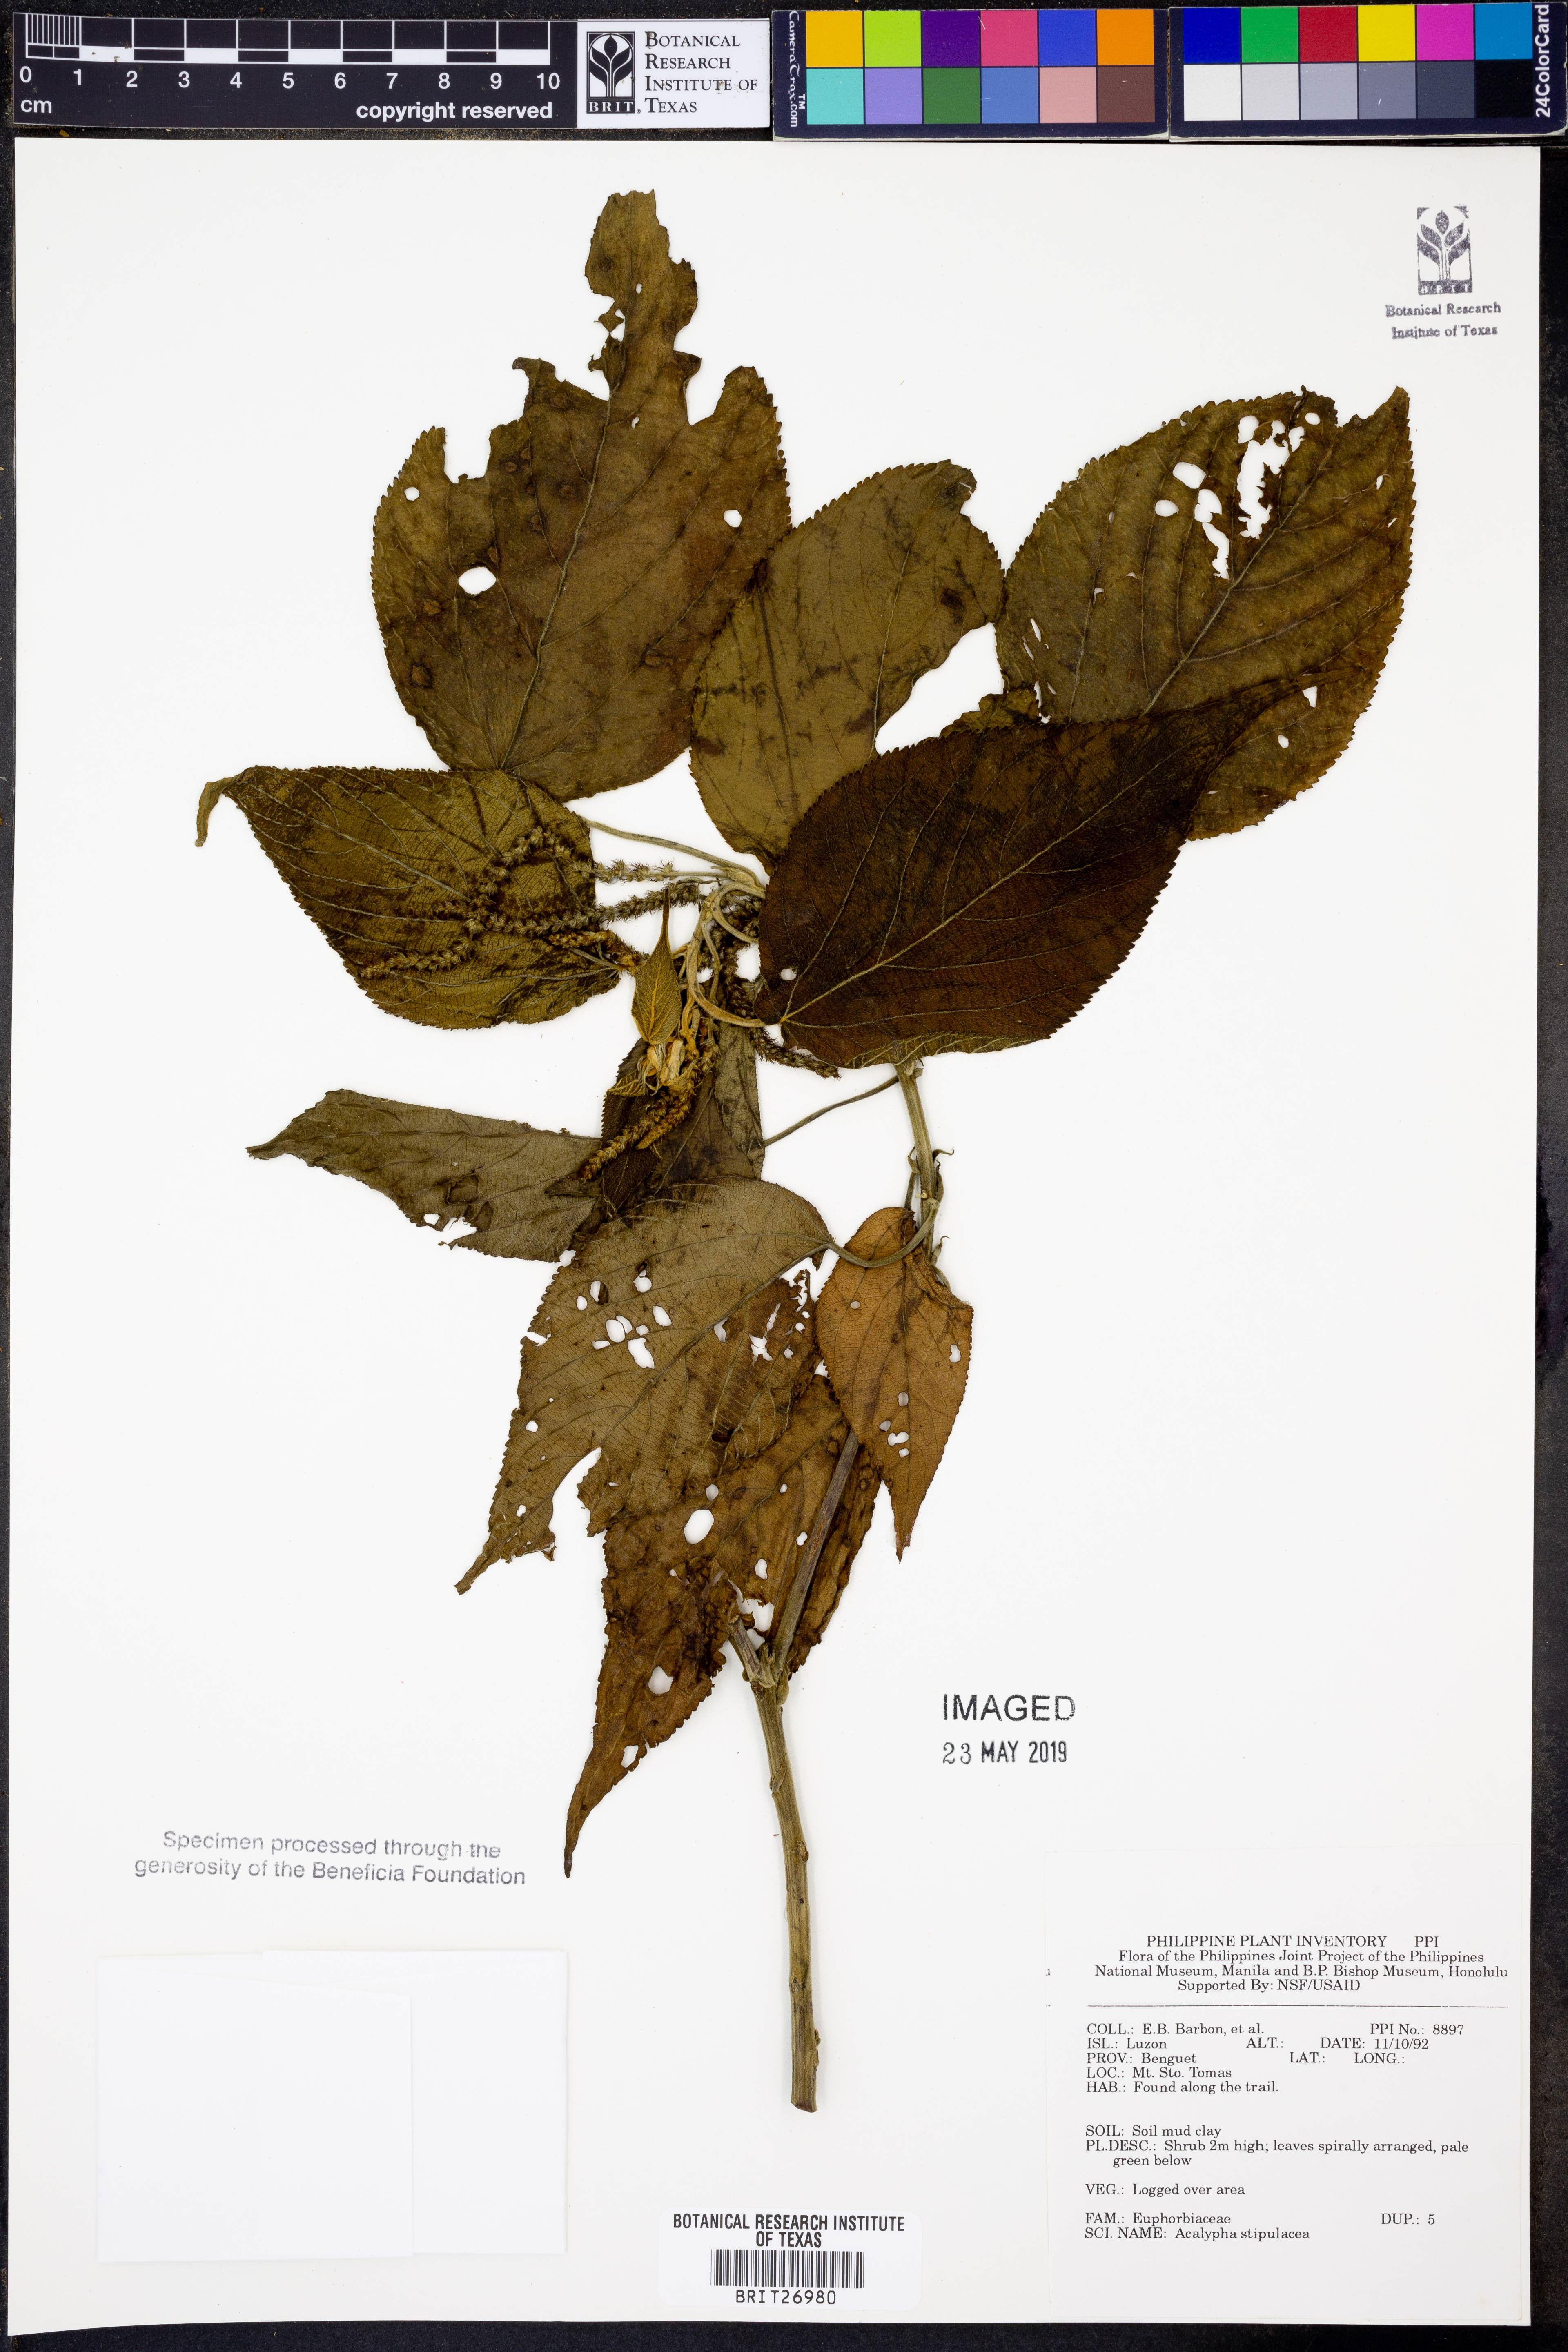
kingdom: Plantae
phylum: Tracheophyta
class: Magnoliopsida
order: Malpighiales
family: Euphorbiaceae
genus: Acalypha
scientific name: Acalypha amentacea
